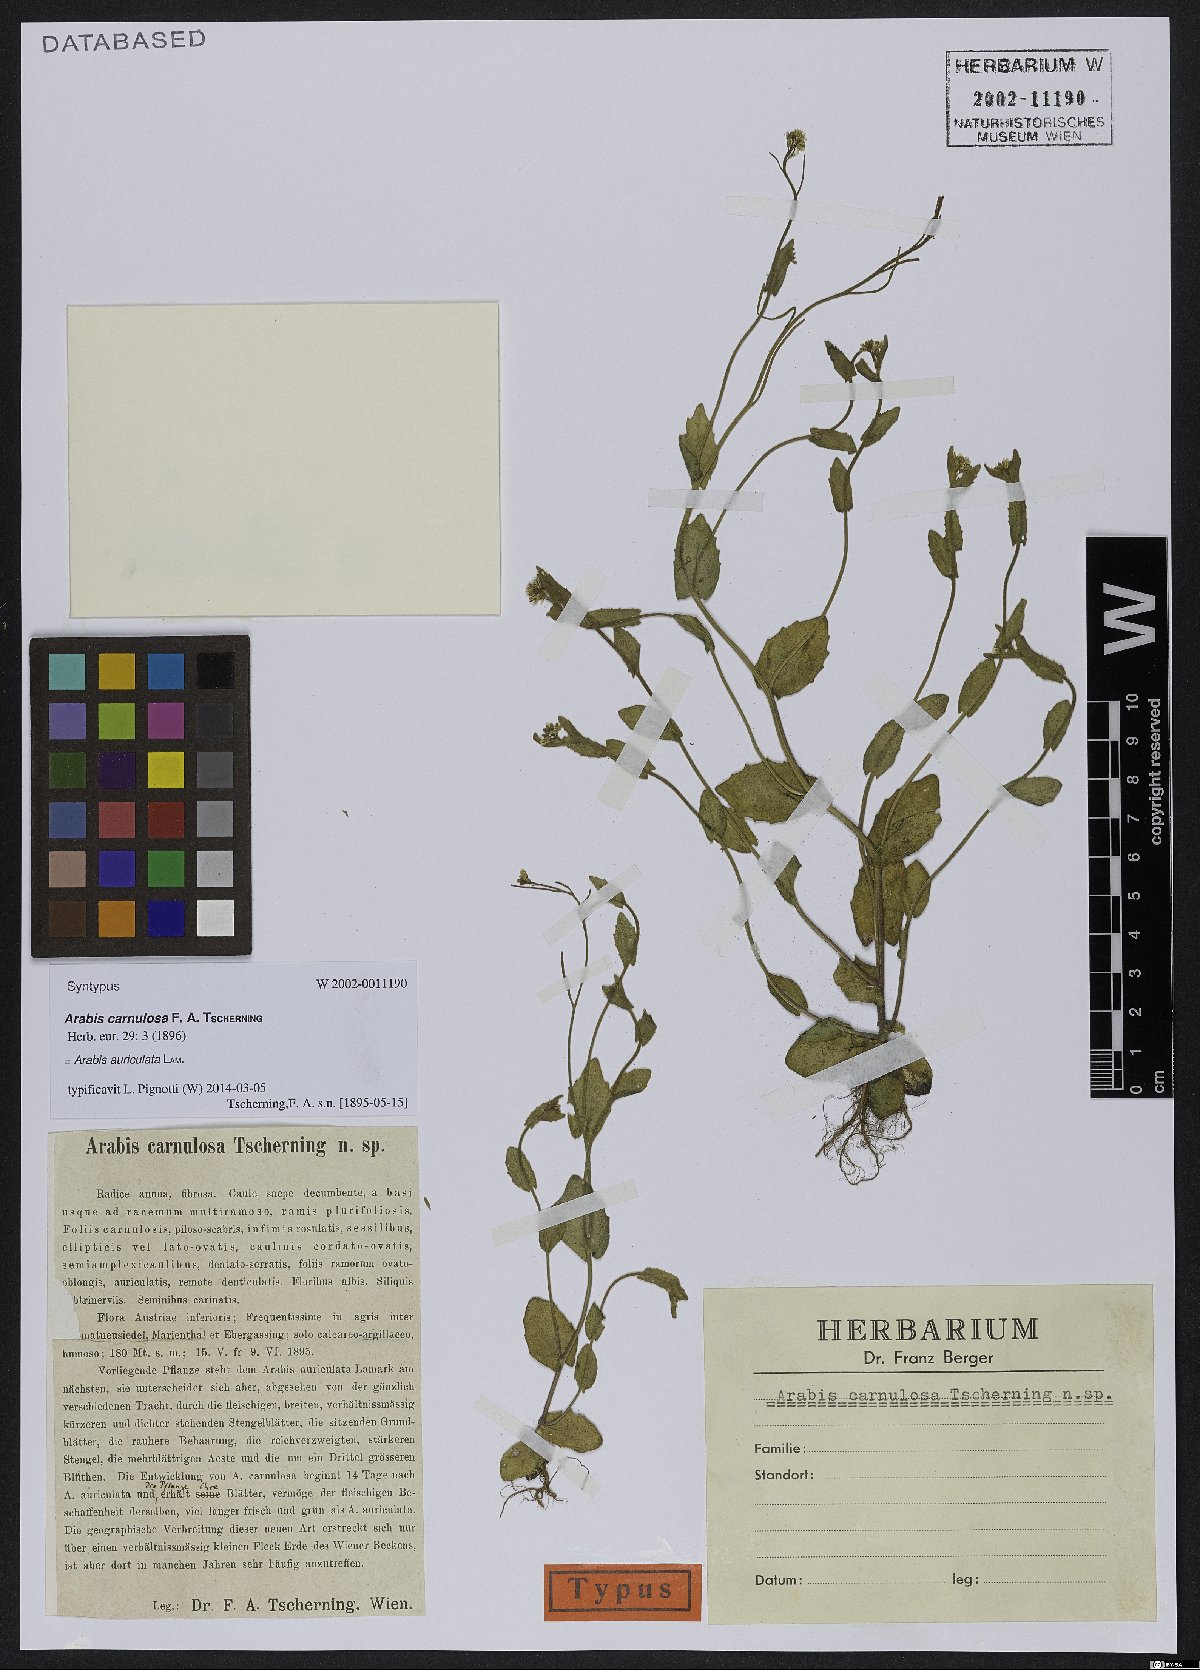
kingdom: Plantae
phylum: Tracheophyta
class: Magnoliopsida
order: Brassicales
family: Brassicaceae
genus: Arabis
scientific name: Arabis auriculata
